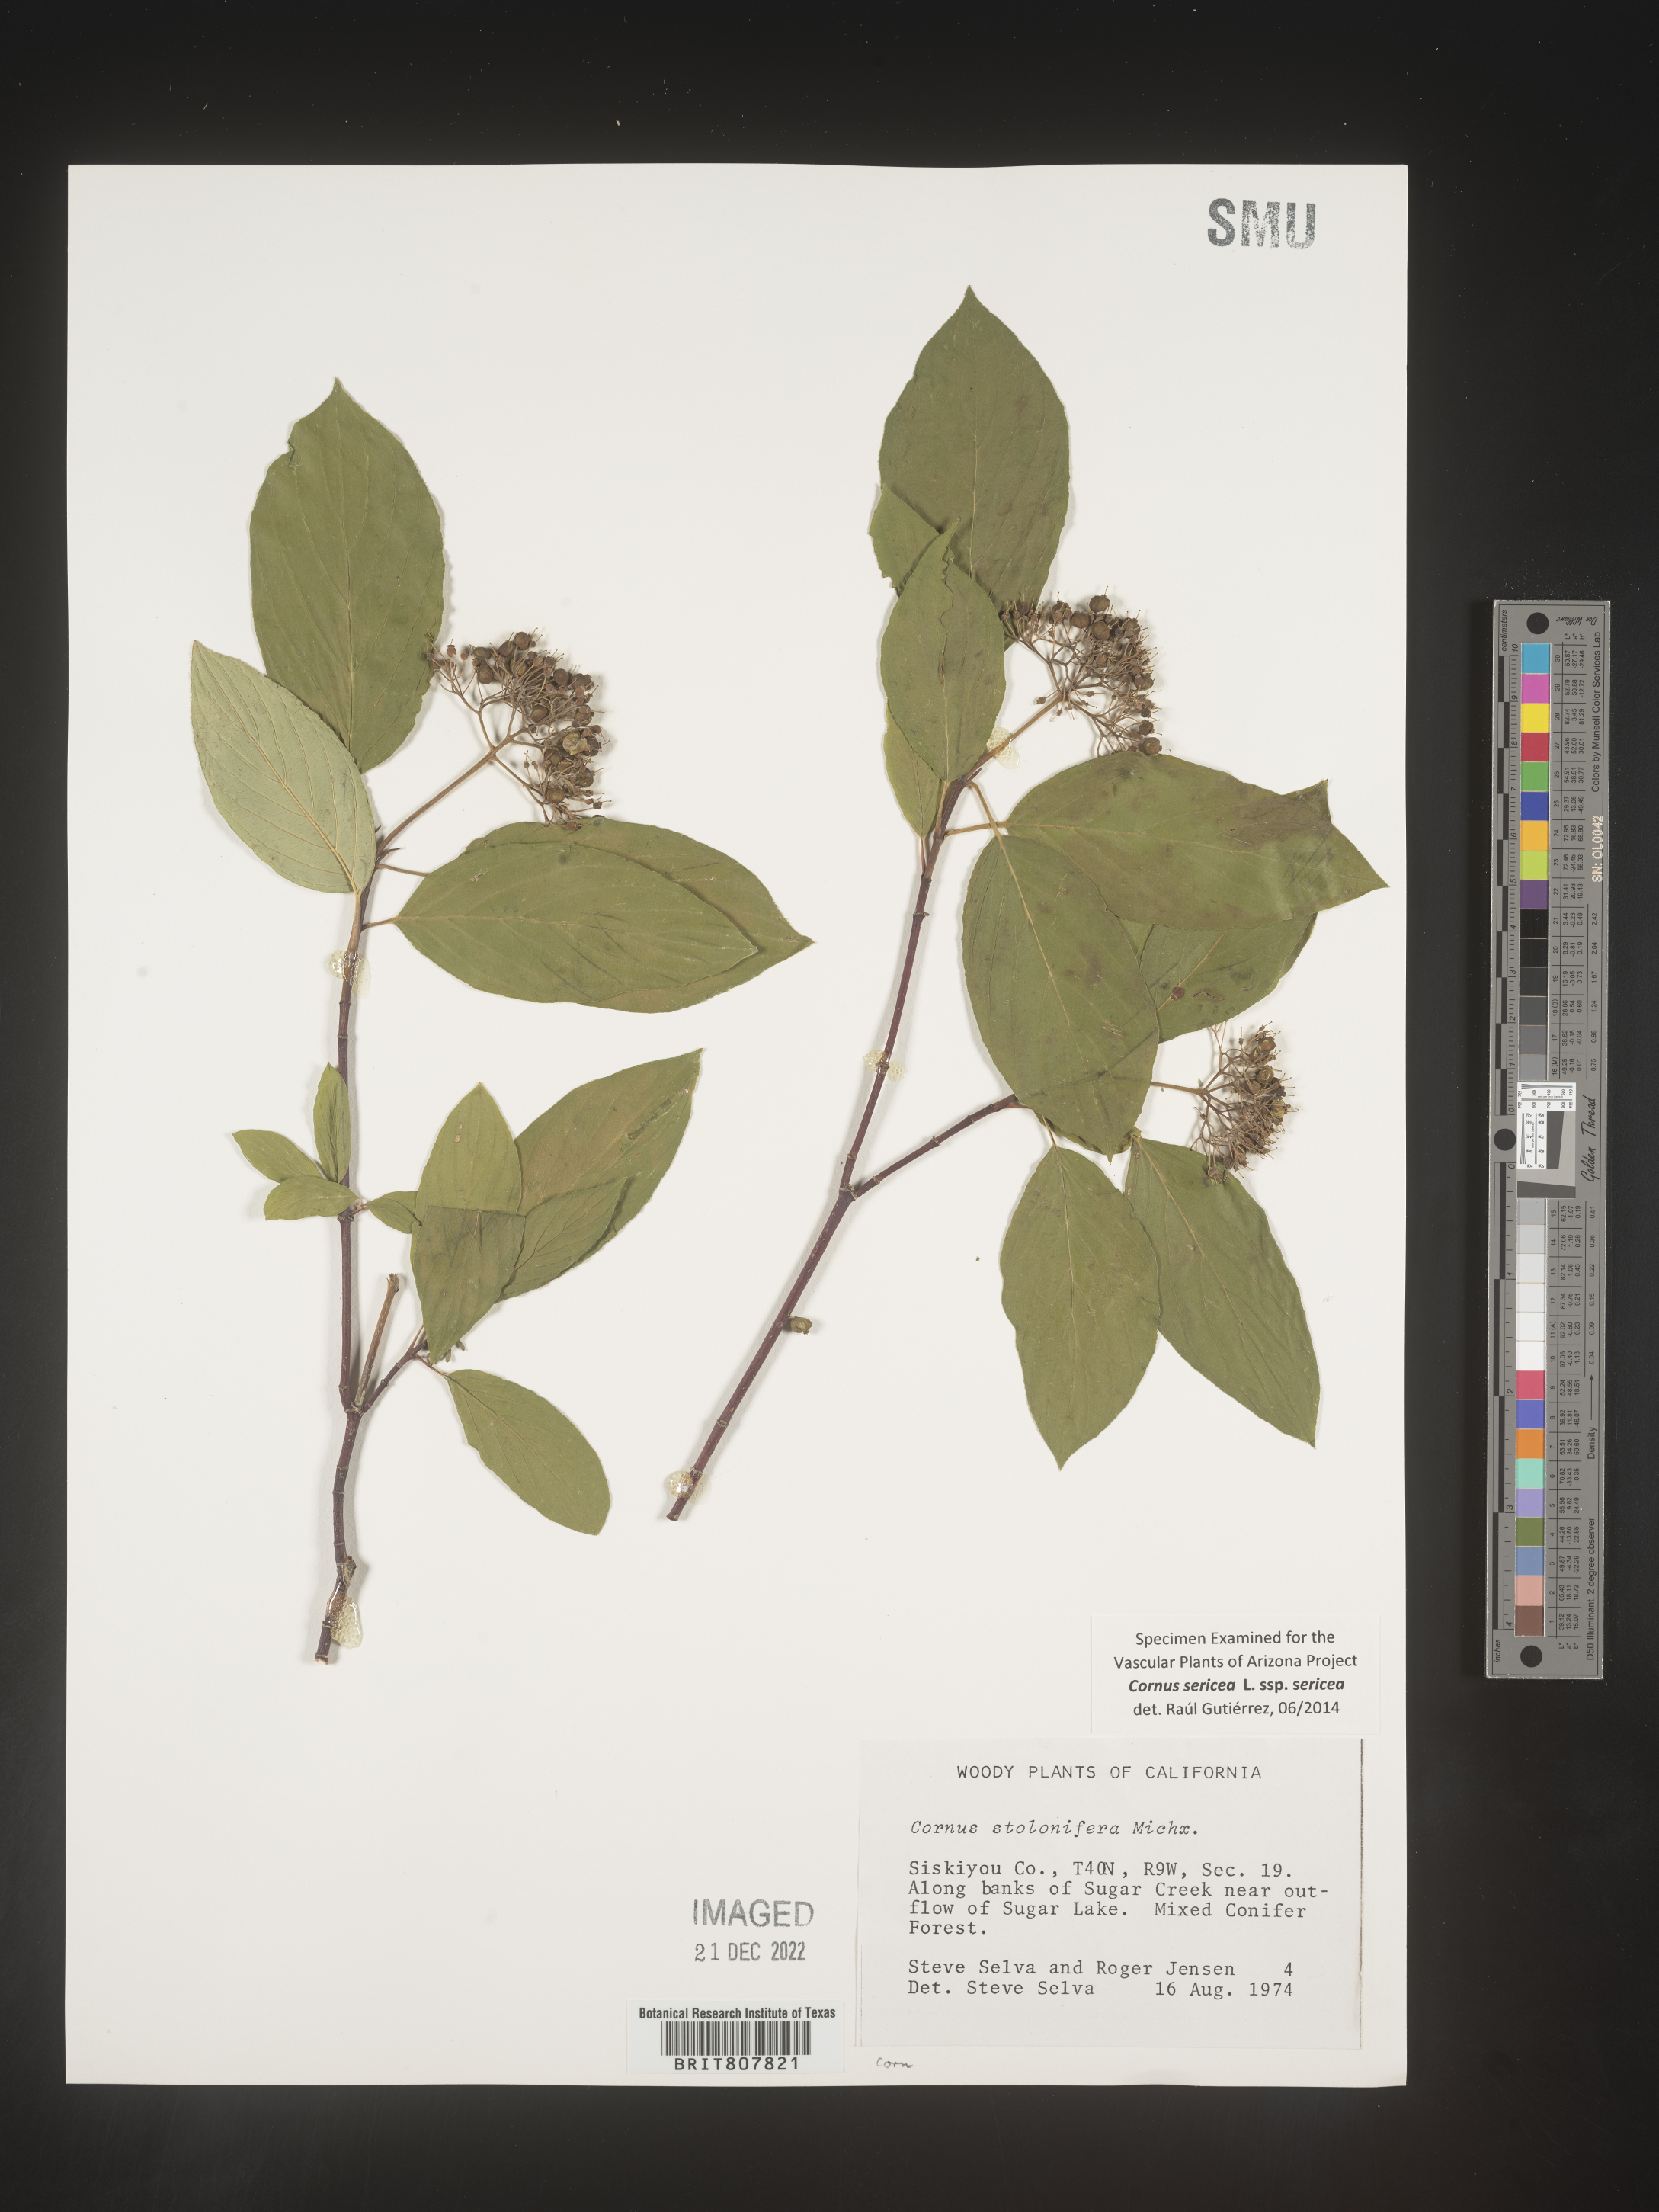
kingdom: Plantae
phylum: Tracheophyta
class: Magnoliopsida
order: Cornales
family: Cornaceae
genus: Cornus
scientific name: Cornus
